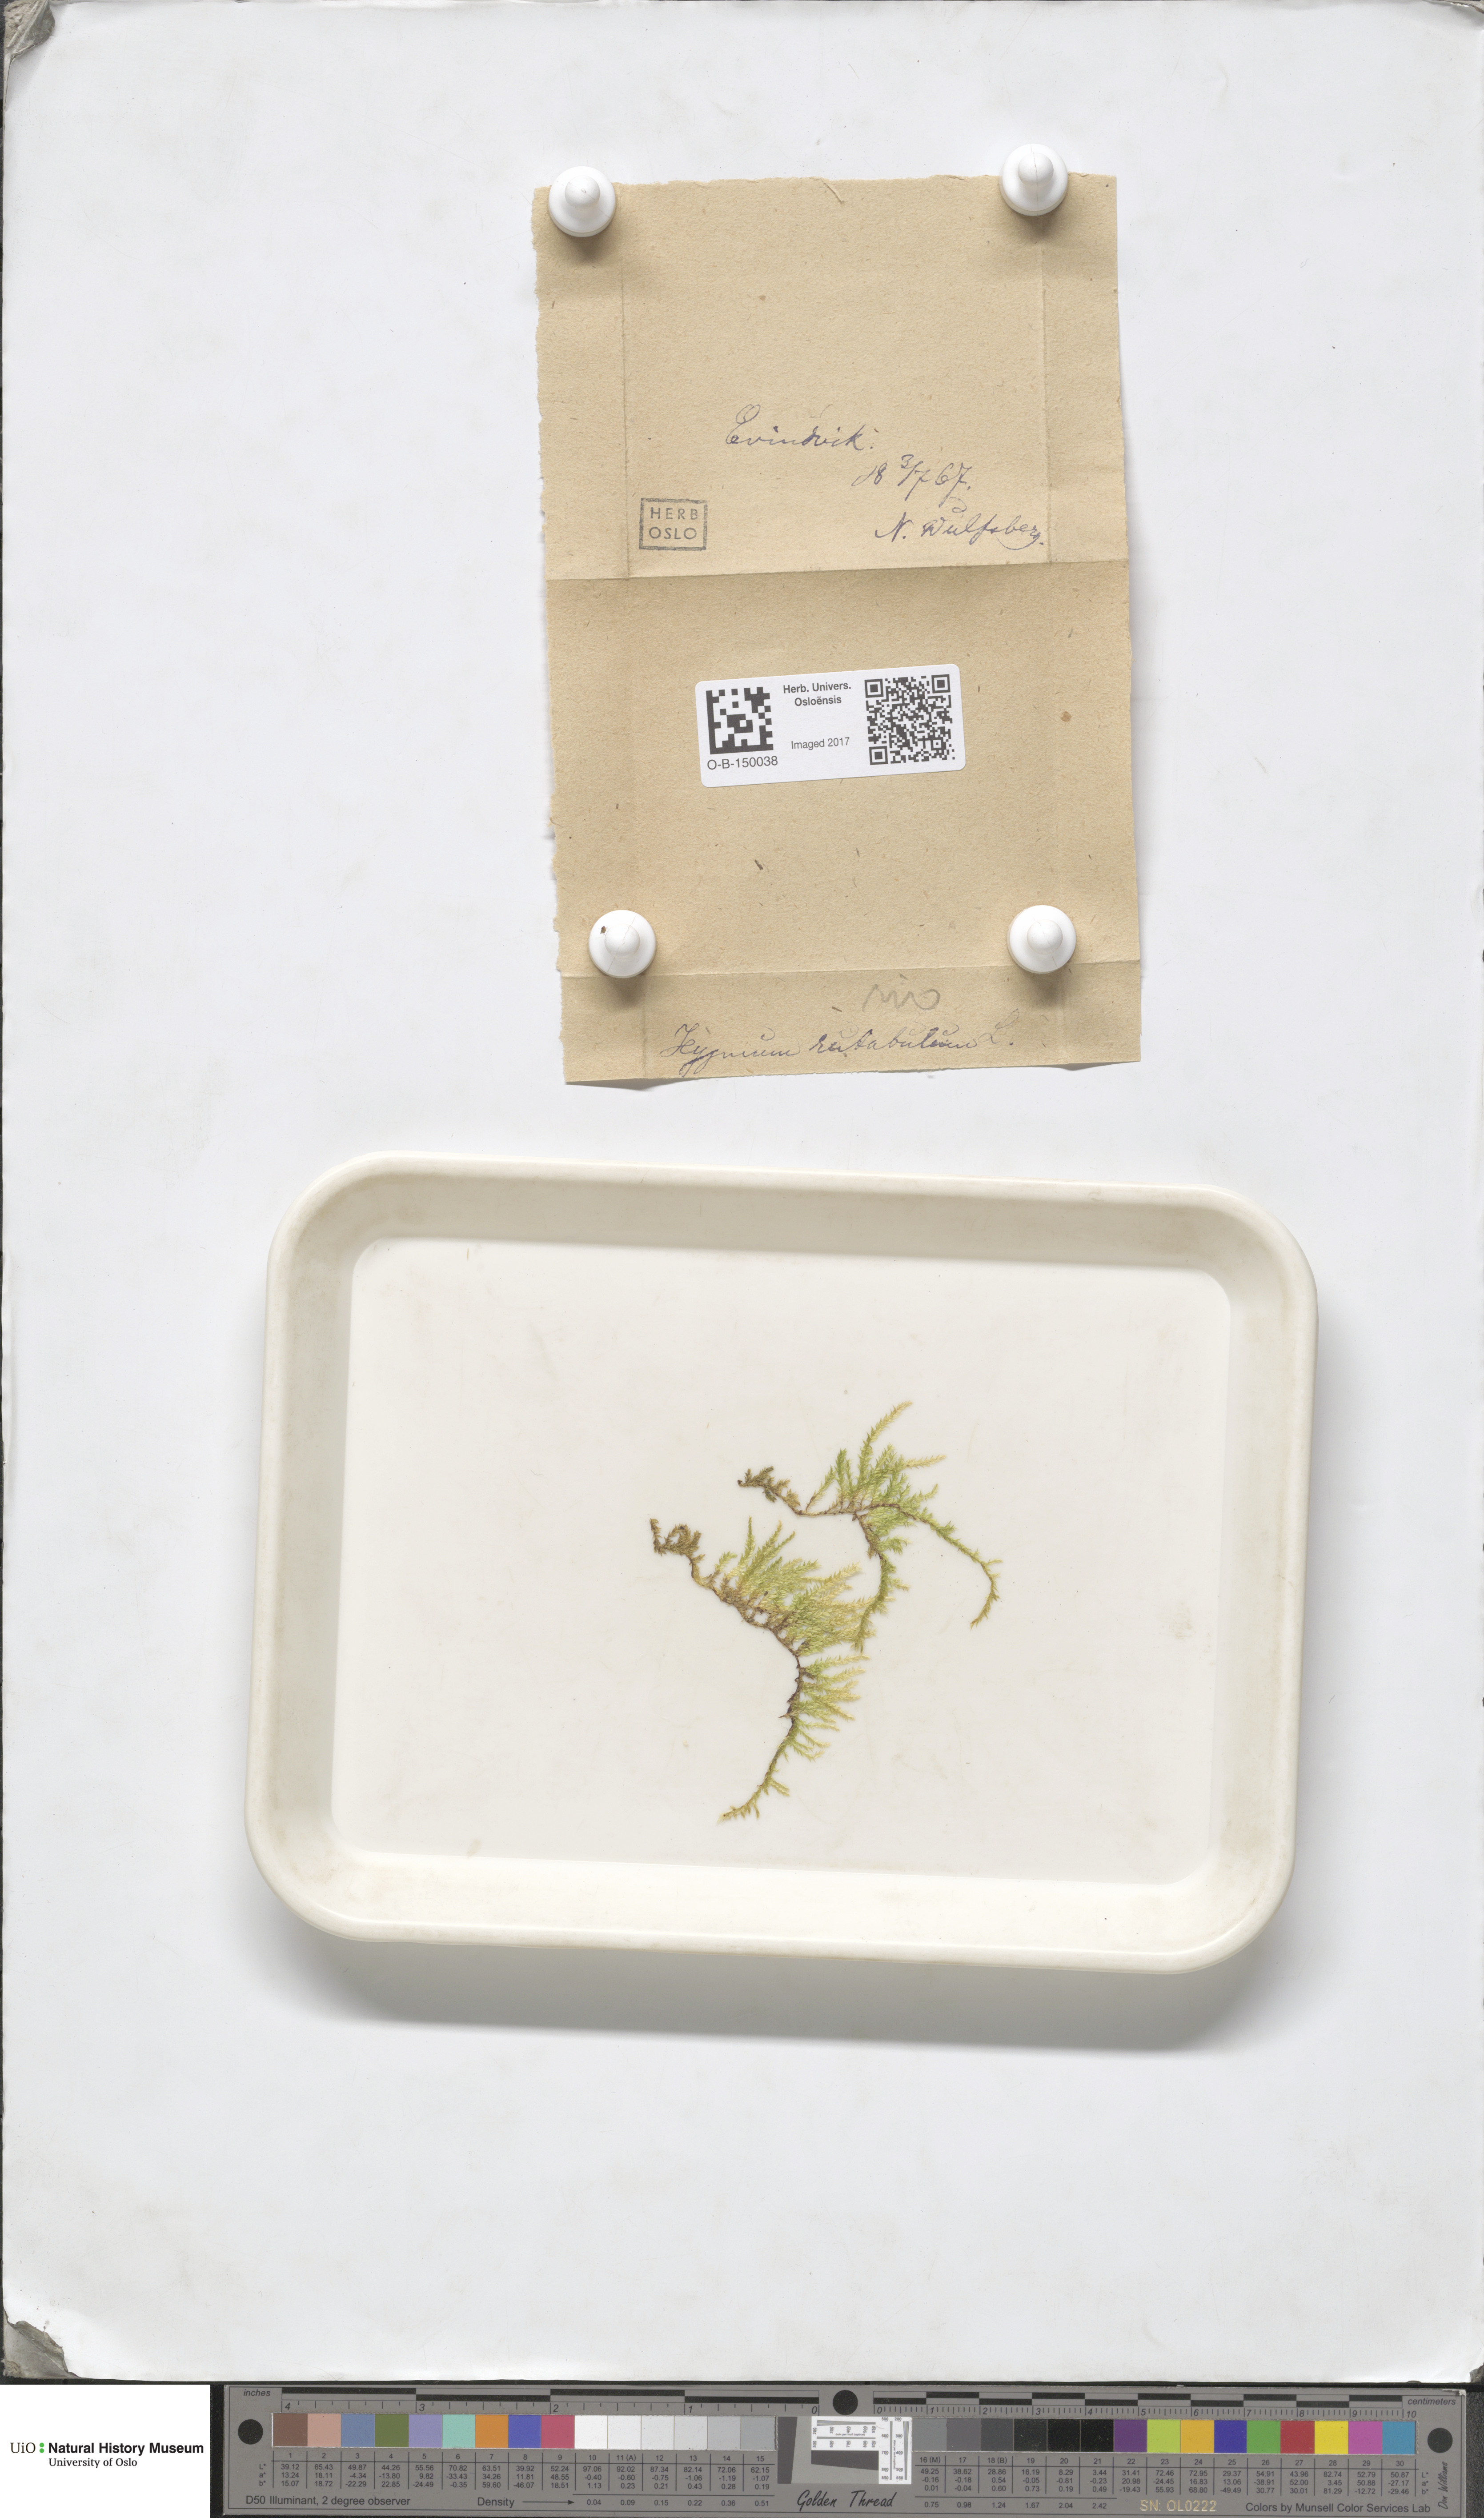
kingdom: Plantae
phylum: Bryophyta
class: Bryopsida
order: Hypnales
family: Brachytheciaceae
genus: Brachythecium
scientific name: Brachythecium rutabulum
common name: Rough-stalked feather-moss
